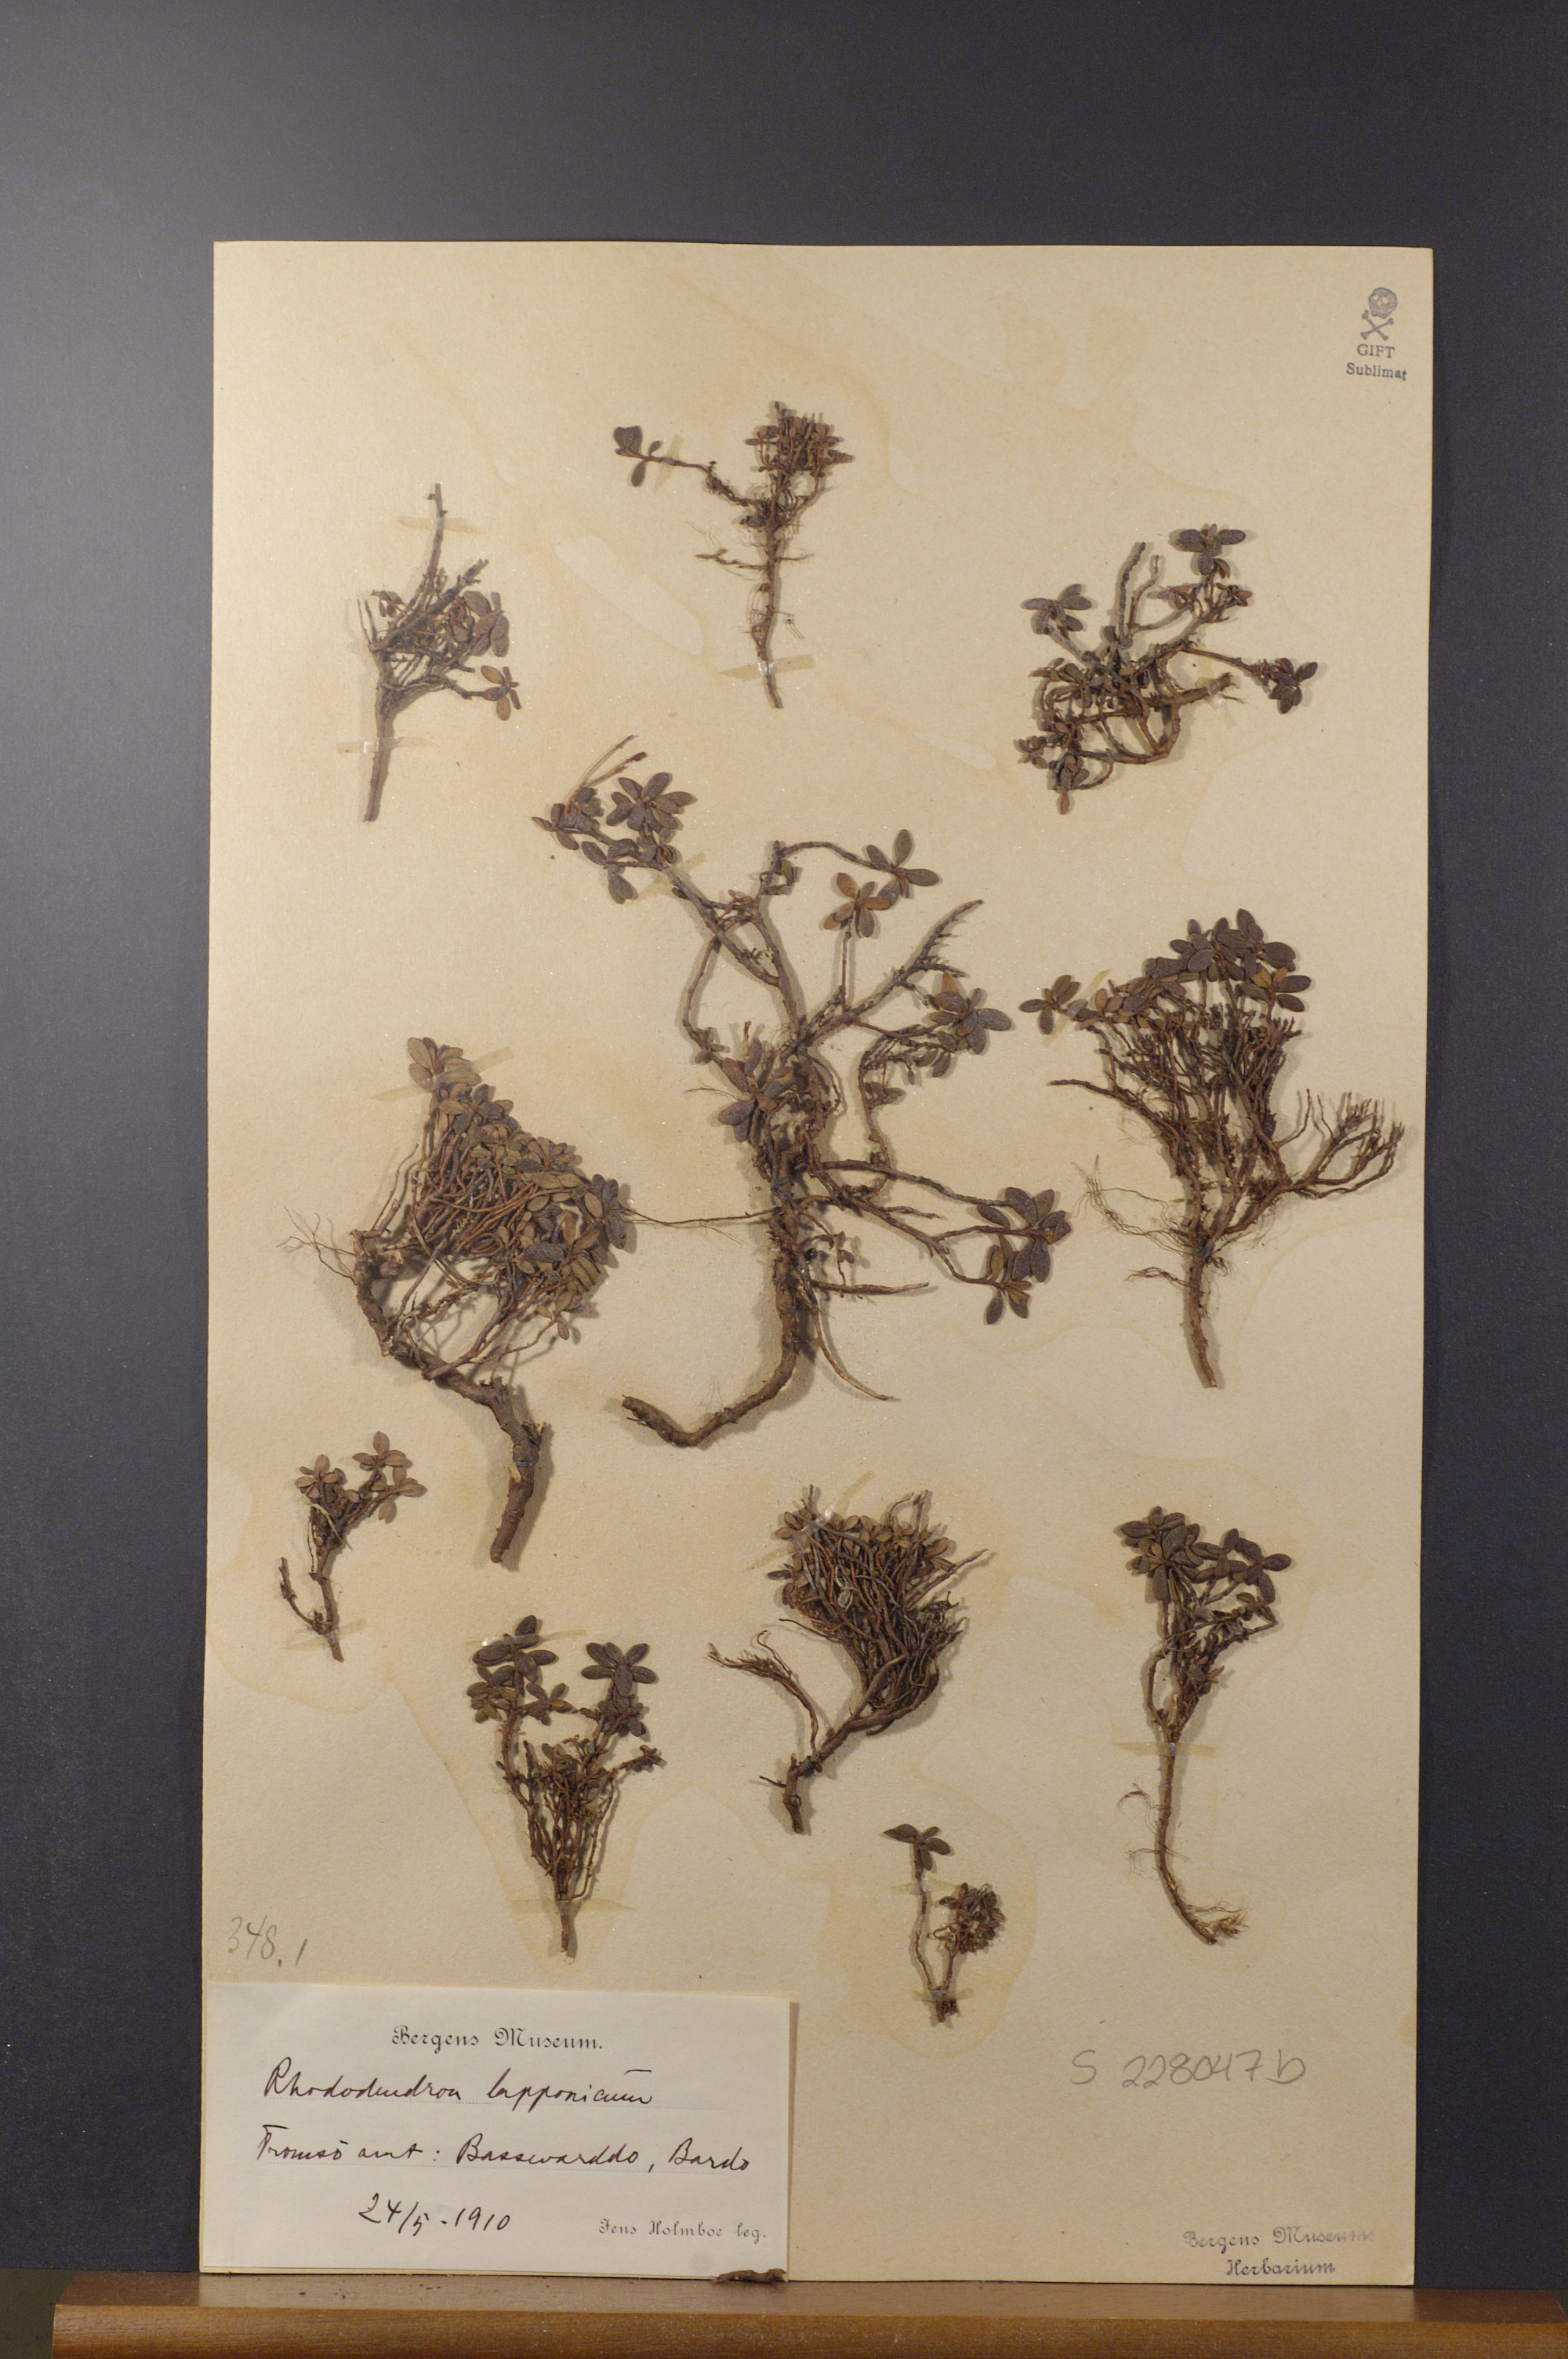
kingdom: Plantae
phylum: Tracheophyta
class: Magnoliopsida
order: Ericales
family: Ericaceae
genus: Rhododendron
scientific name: Rhododendron lapponicum
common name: Lapland rhododendron
